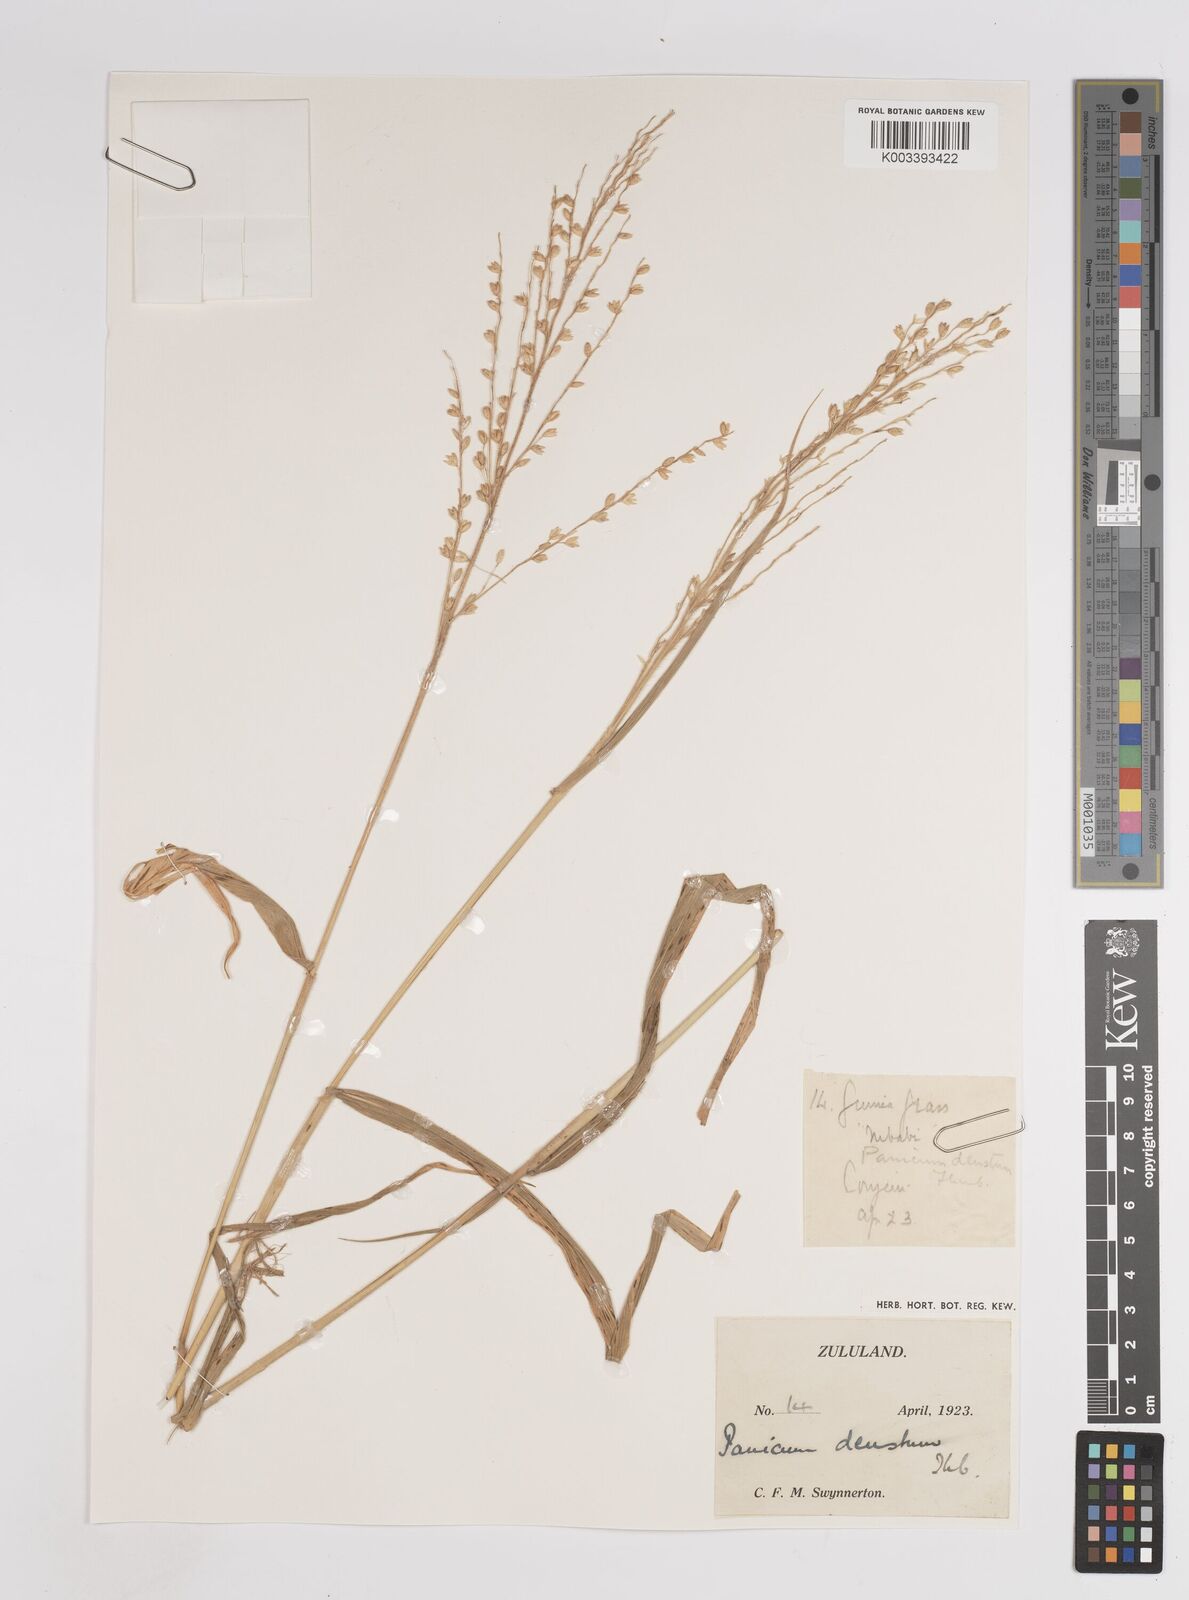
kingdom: Plantae
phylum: Tracheophyta
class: Liliopsida
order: Poales
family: Poaceae
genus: Panicum
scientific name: Panicum deustum
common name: Reed panicum
